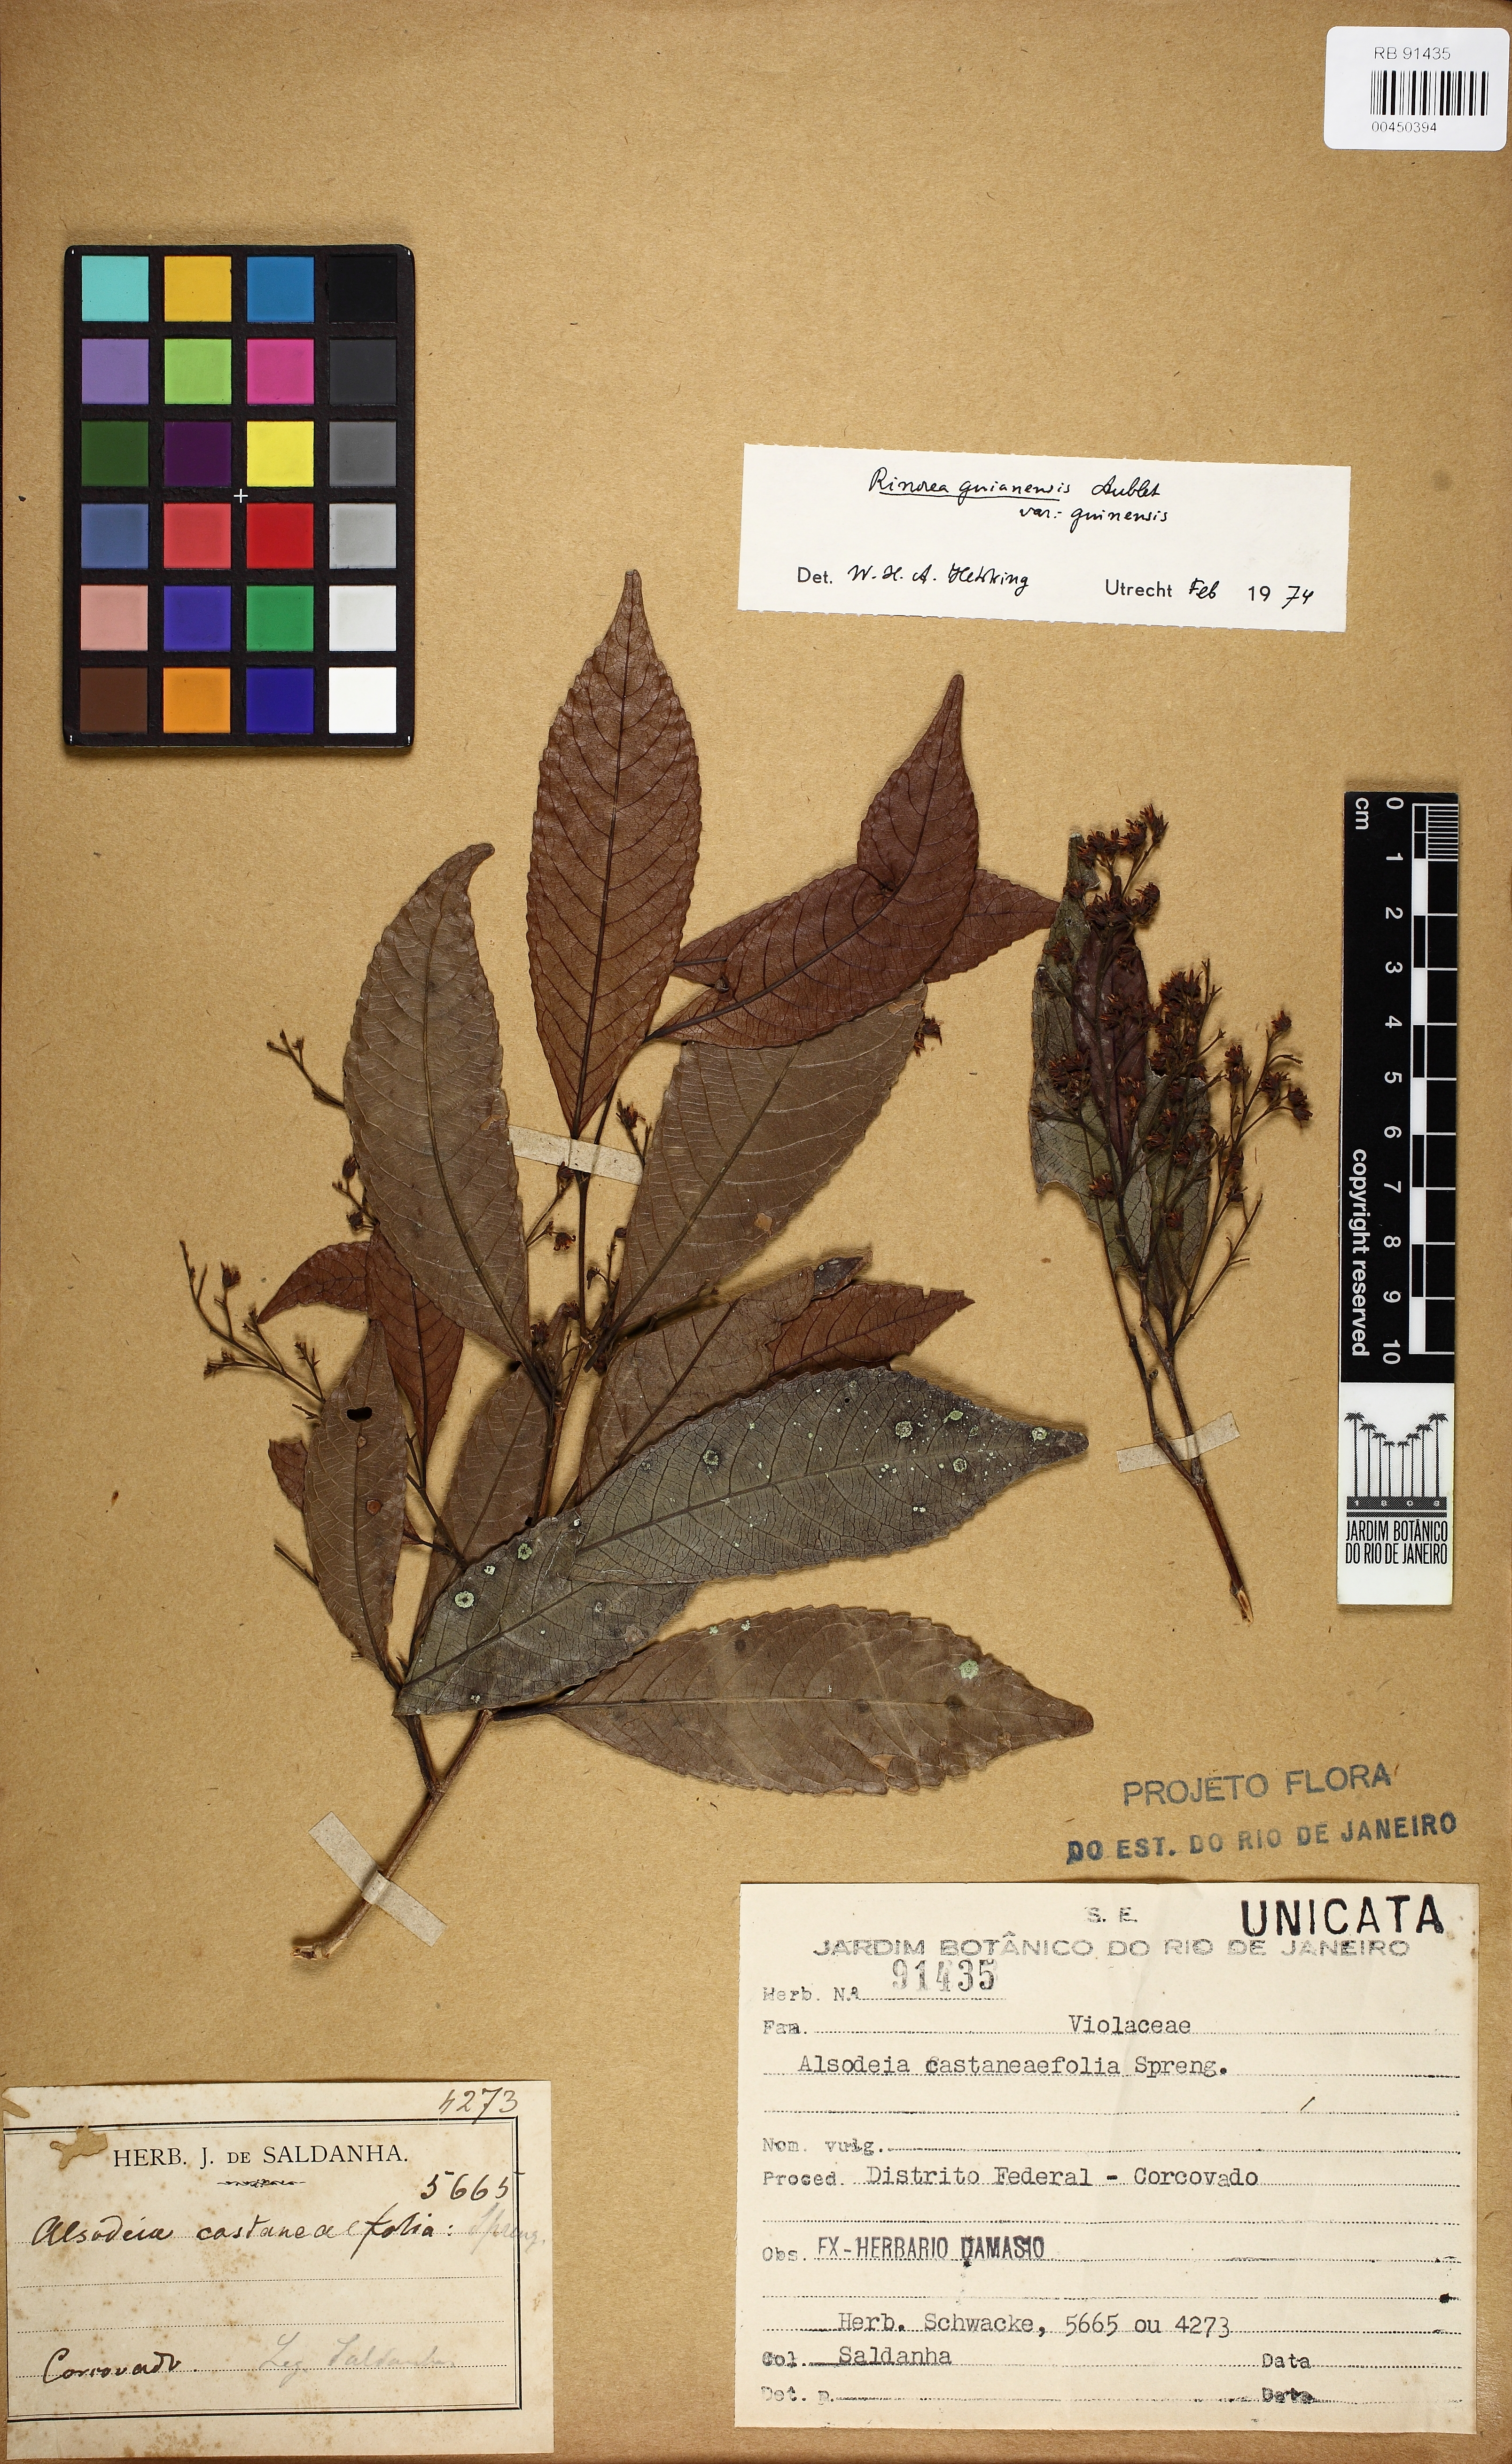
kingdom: Plantae
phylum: Tracheophyta
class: Magnoliopsida
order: Malpighiales
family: Violaceae
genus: Rinorea
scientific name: Rinorea guianensis
